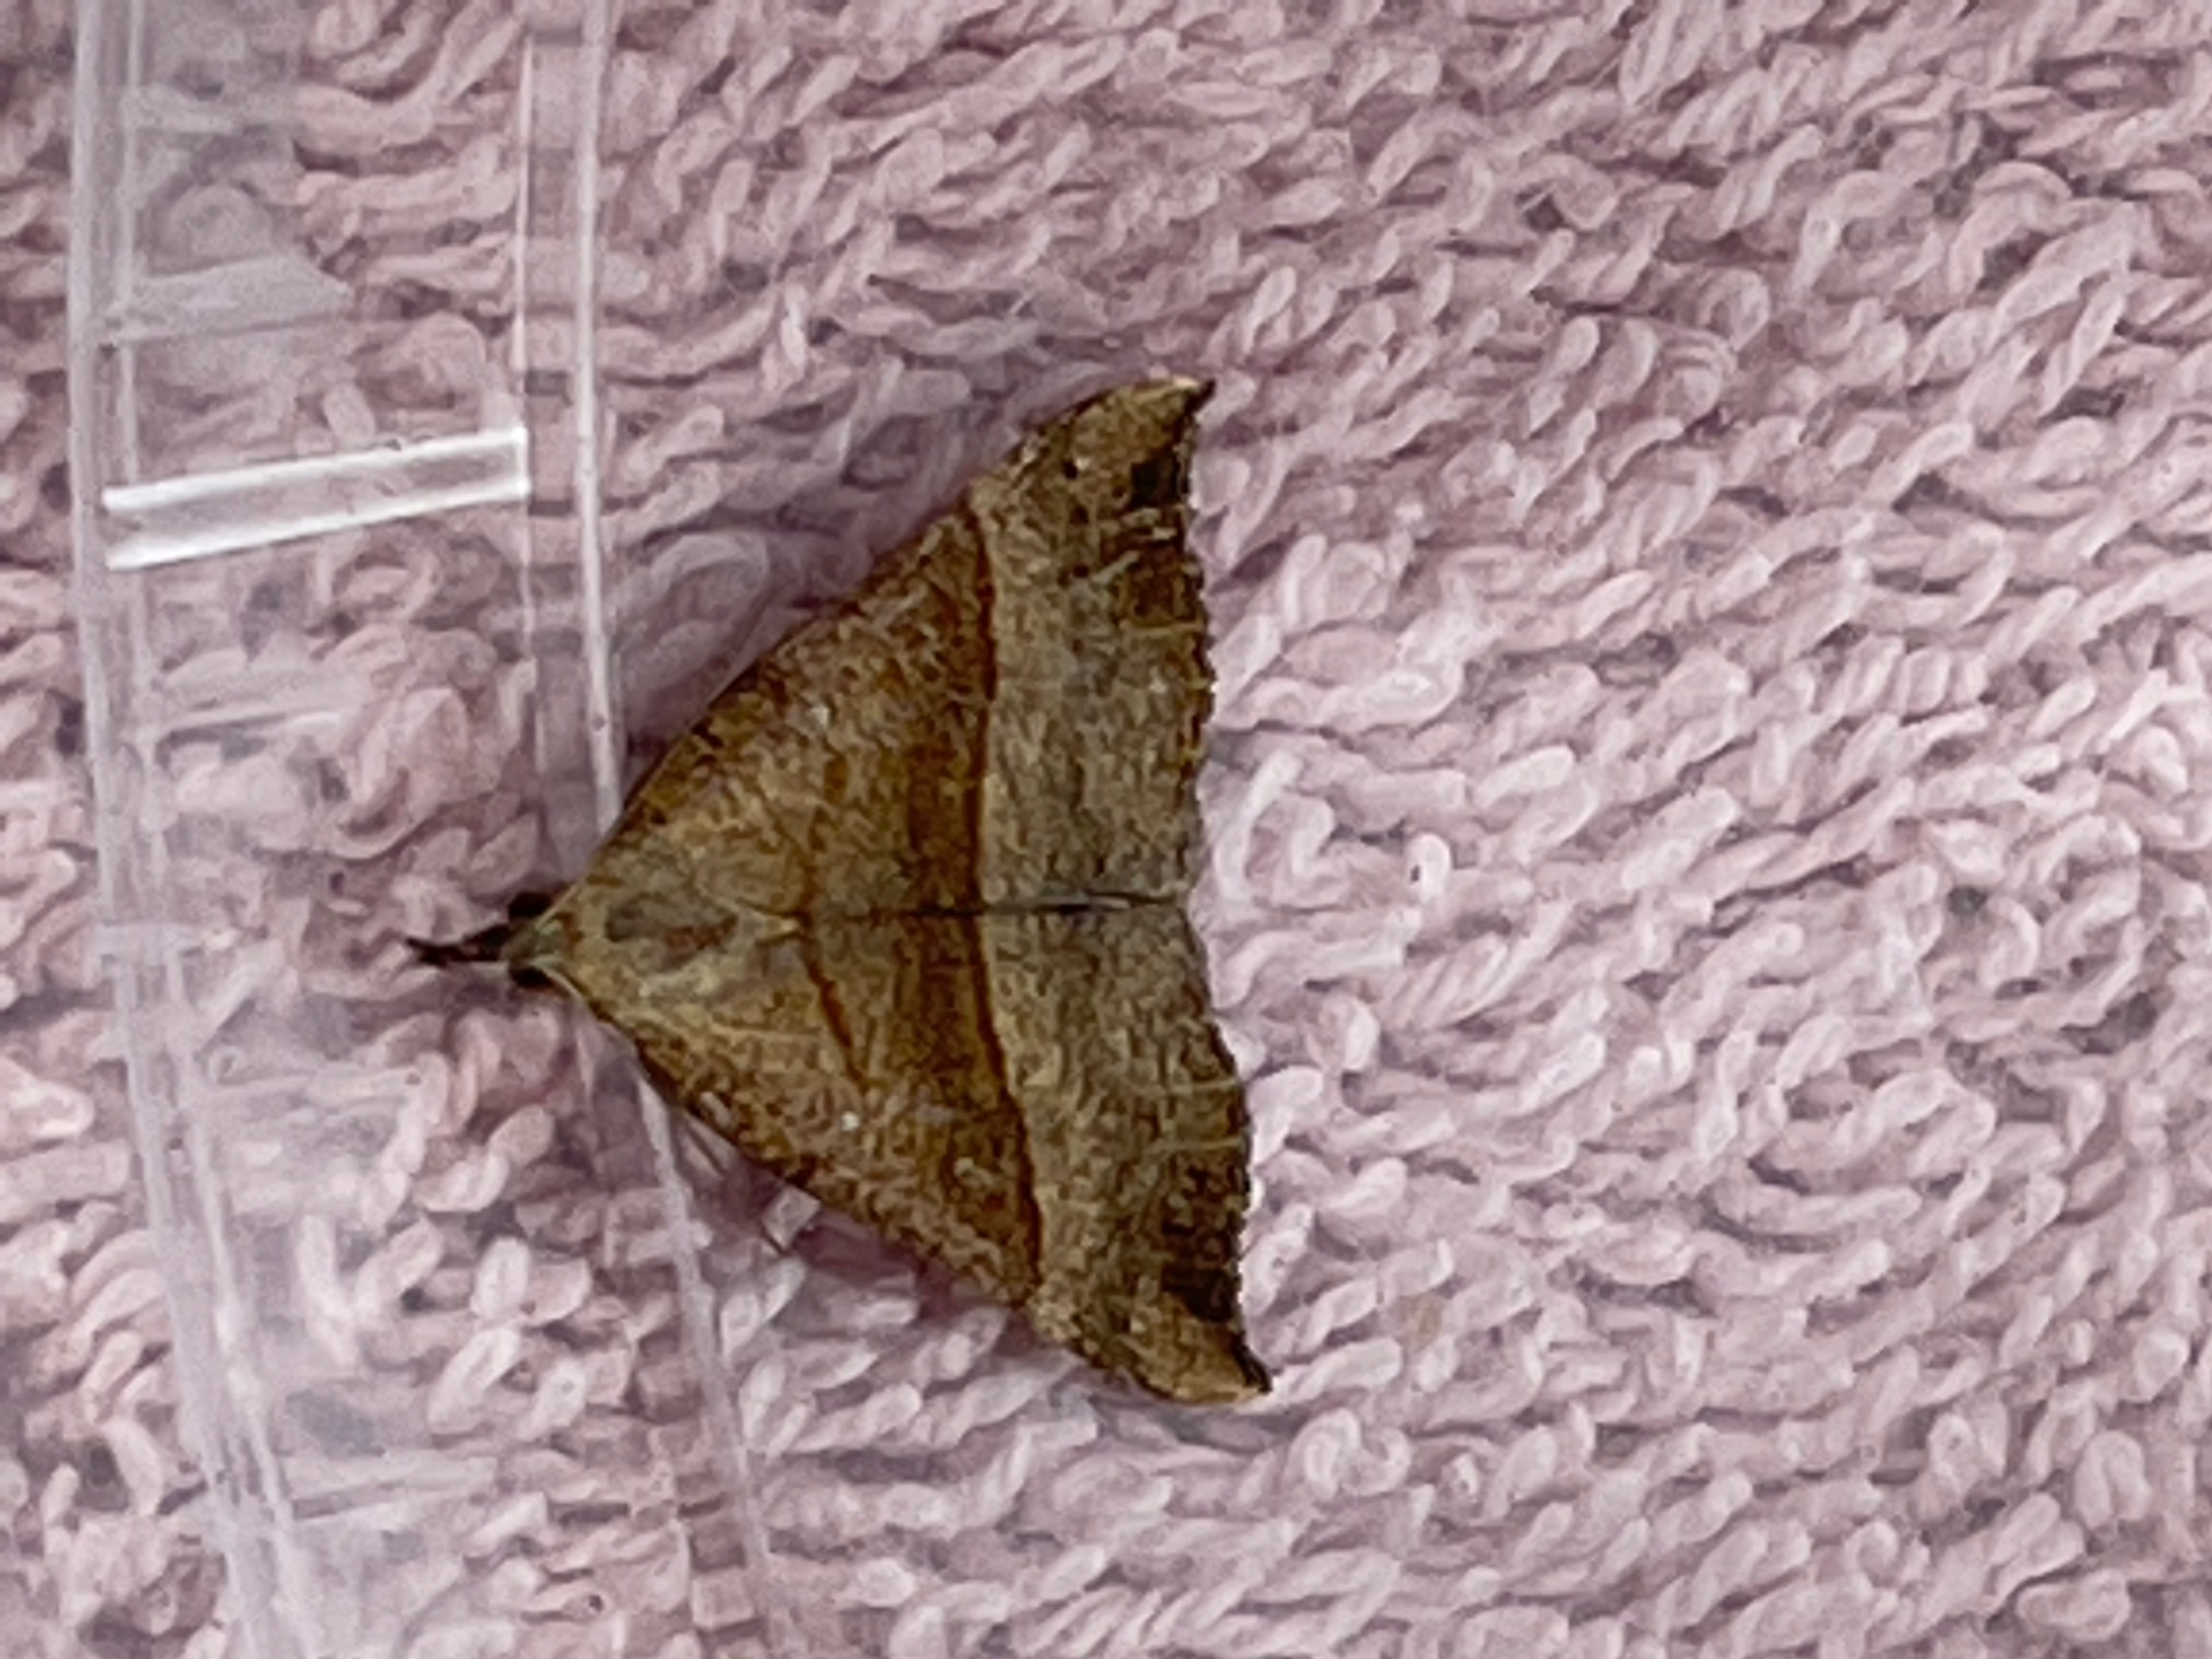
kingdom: Animalia
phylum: Arthropoda
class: Insecta
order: Lepidoptera
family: Erebidae
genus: Hypena
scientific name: Hypena proboscidalis
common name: Snudeugle
